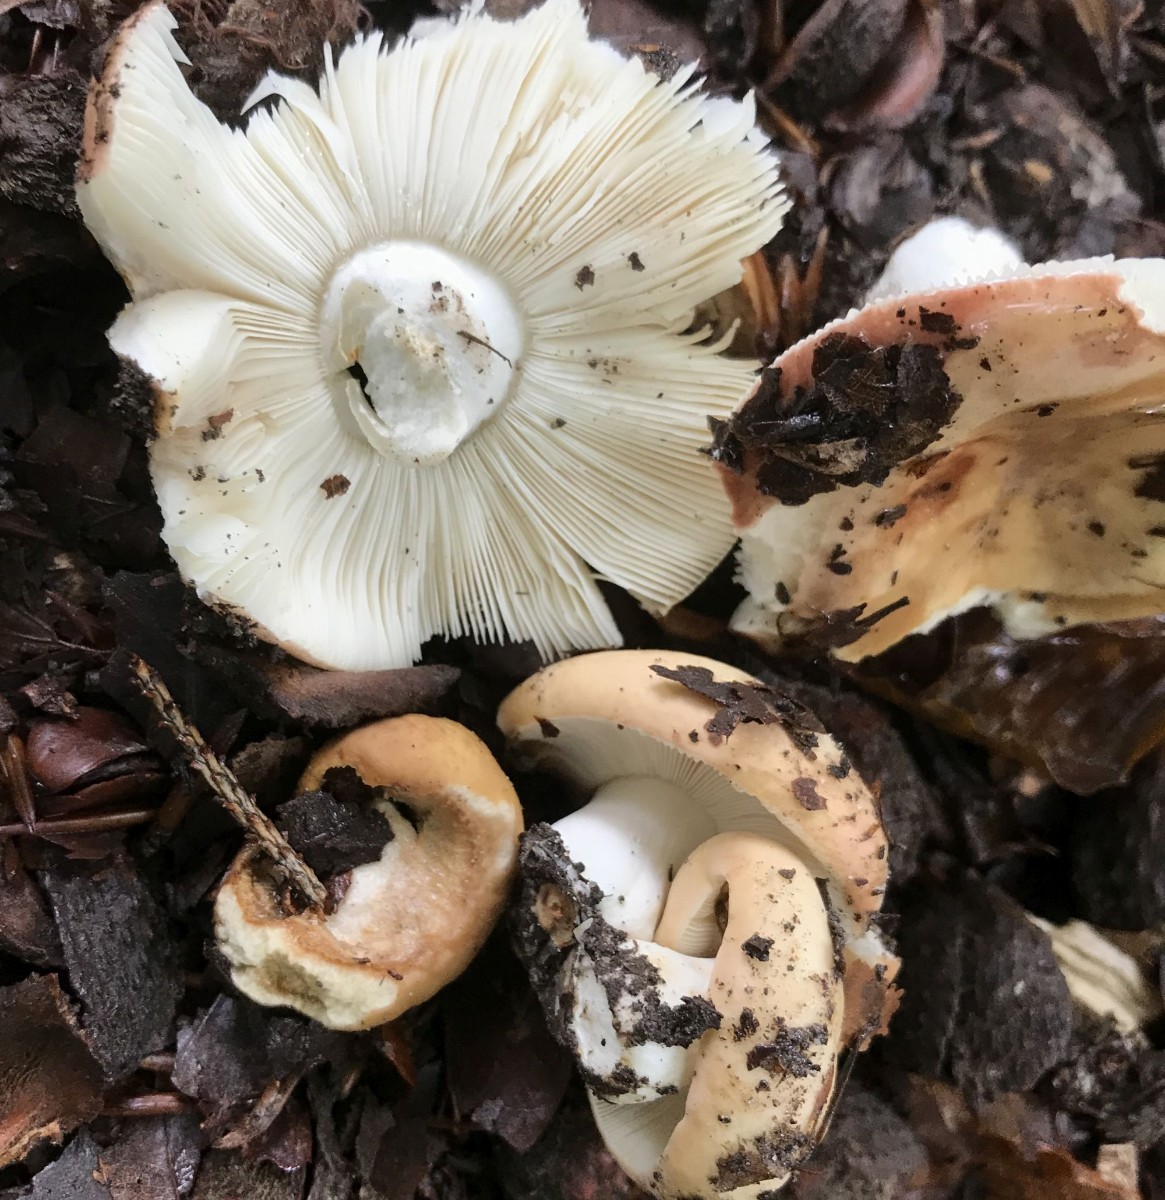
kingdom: Fungi
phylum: Basidiomycota
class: Agaricomycetes
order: Russulales
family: Russulaceae
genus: Russula
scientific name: Russula
